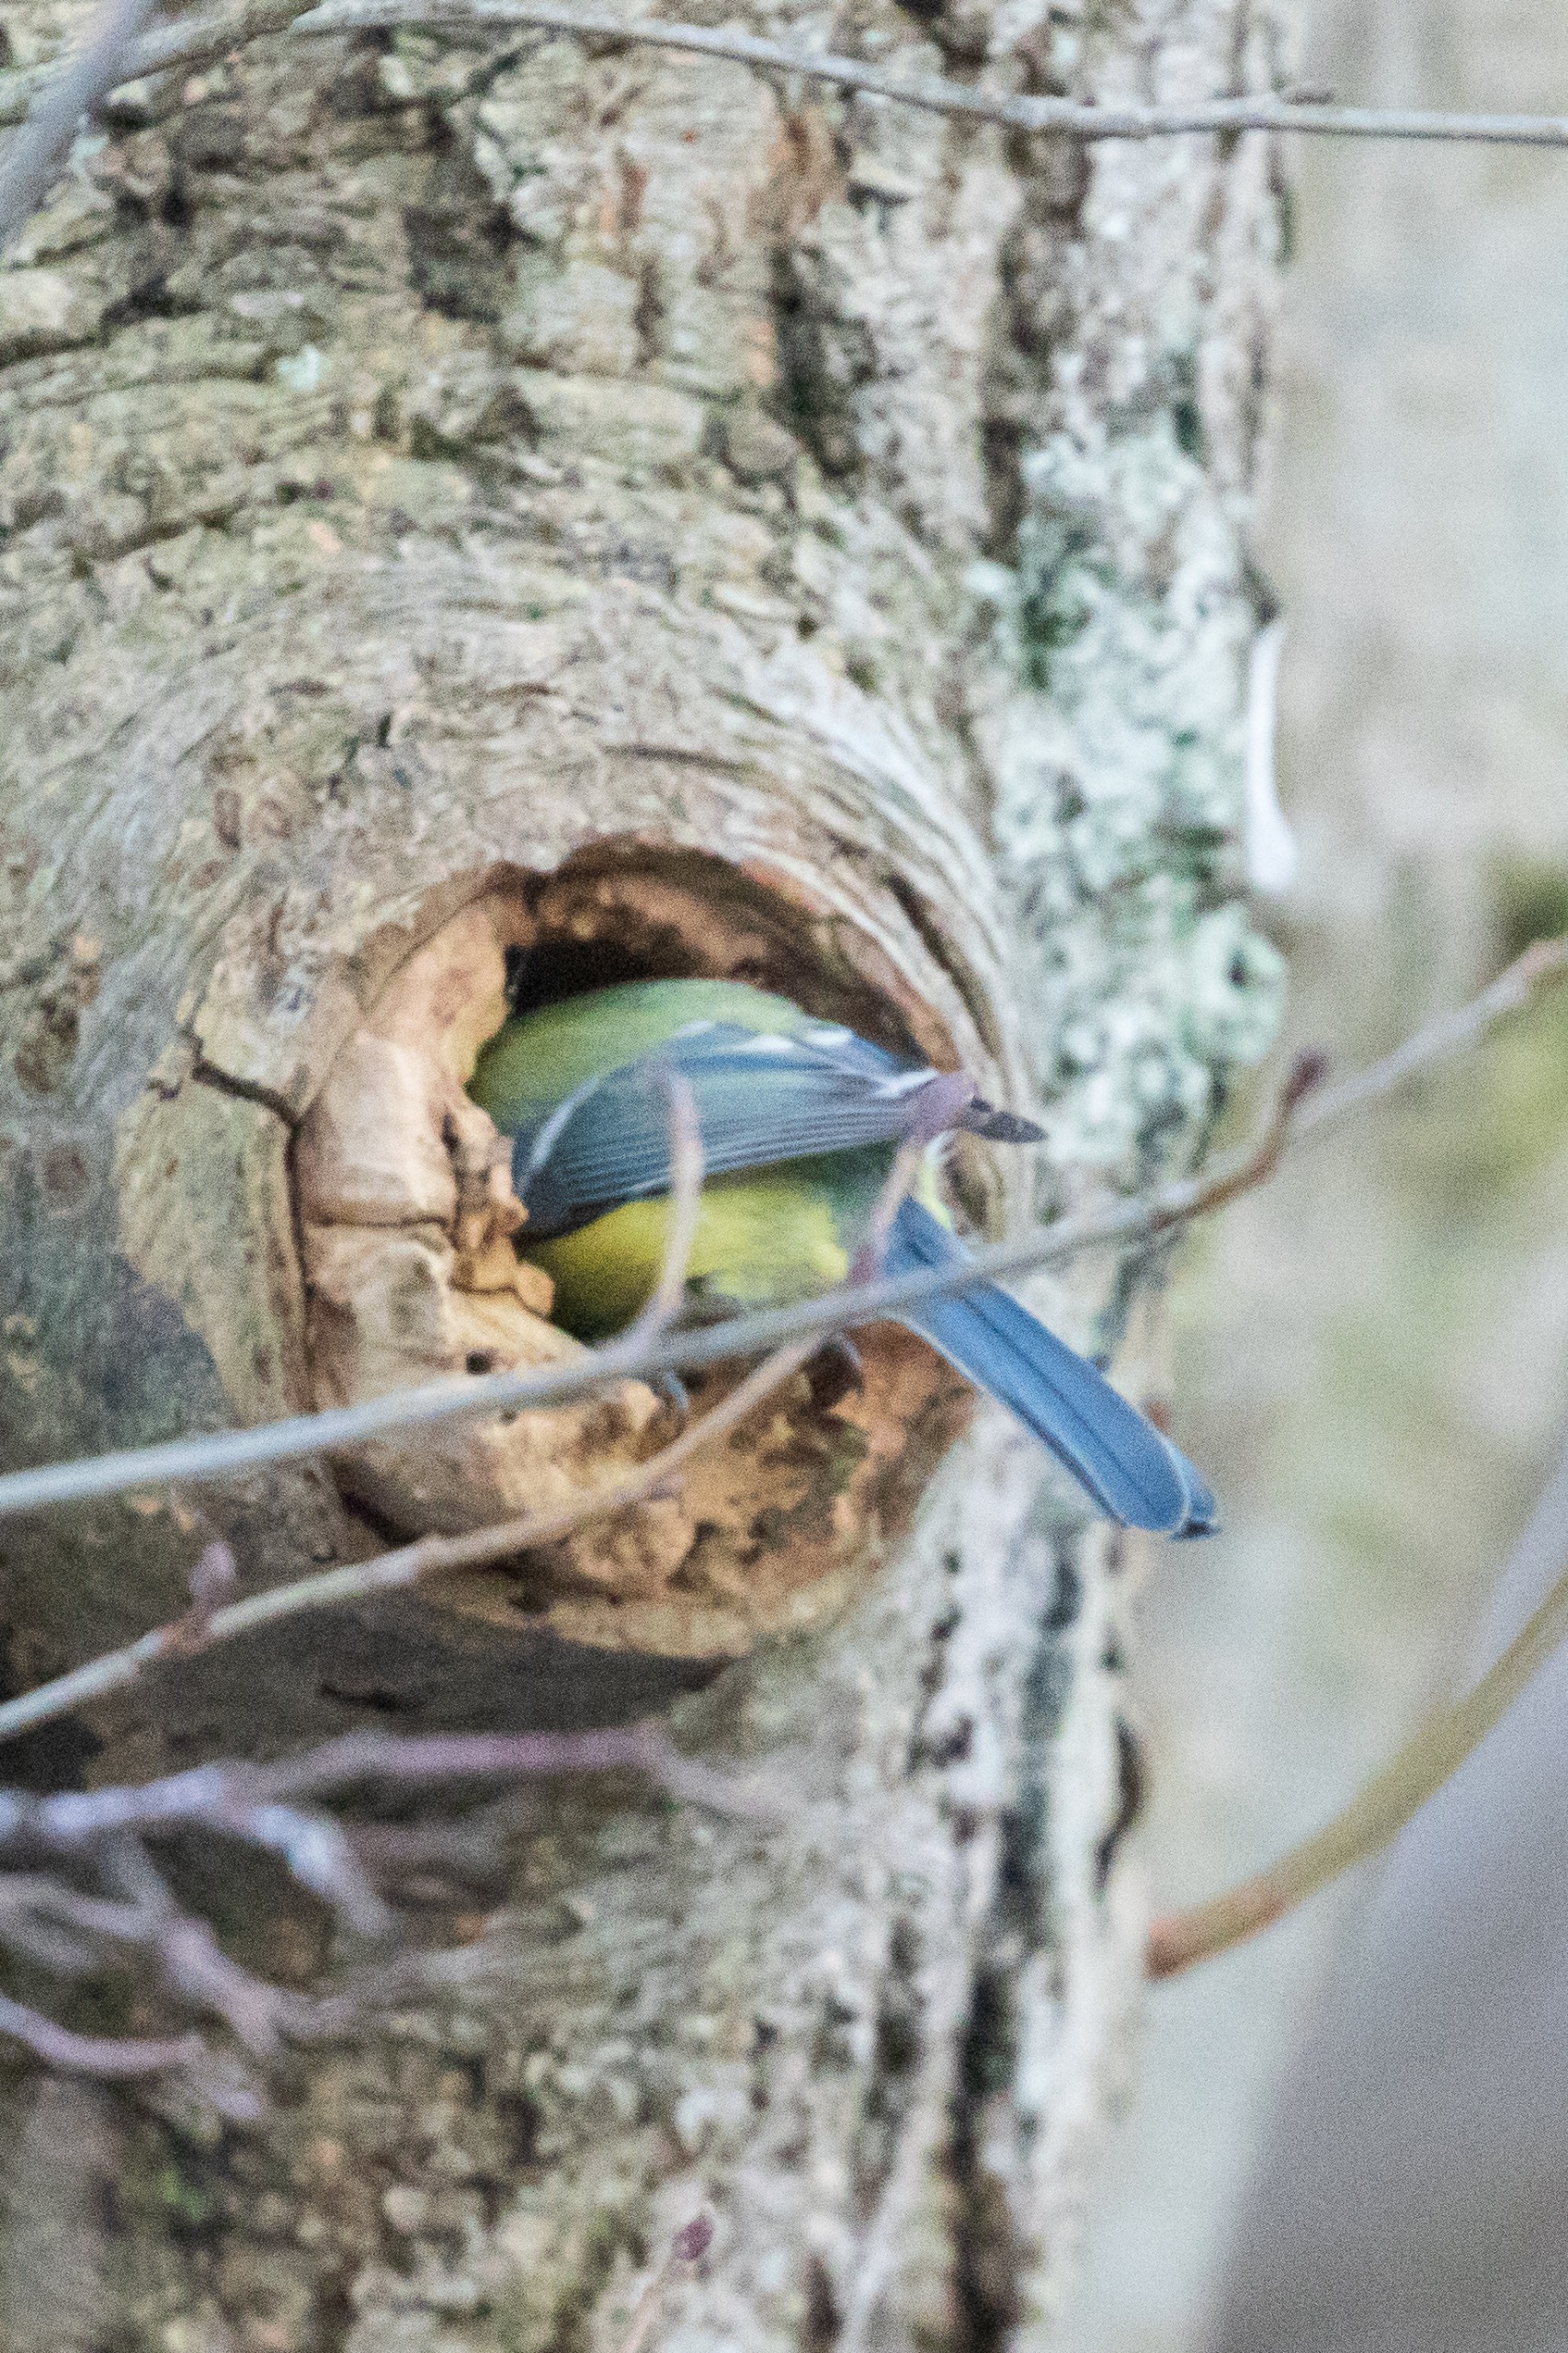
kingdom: Animalia
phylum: Chordata
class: Aves
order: Passeriformes
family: Paridae
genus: Cyanistes
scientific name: Cyanistes caeruleus
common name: Blåmejse
